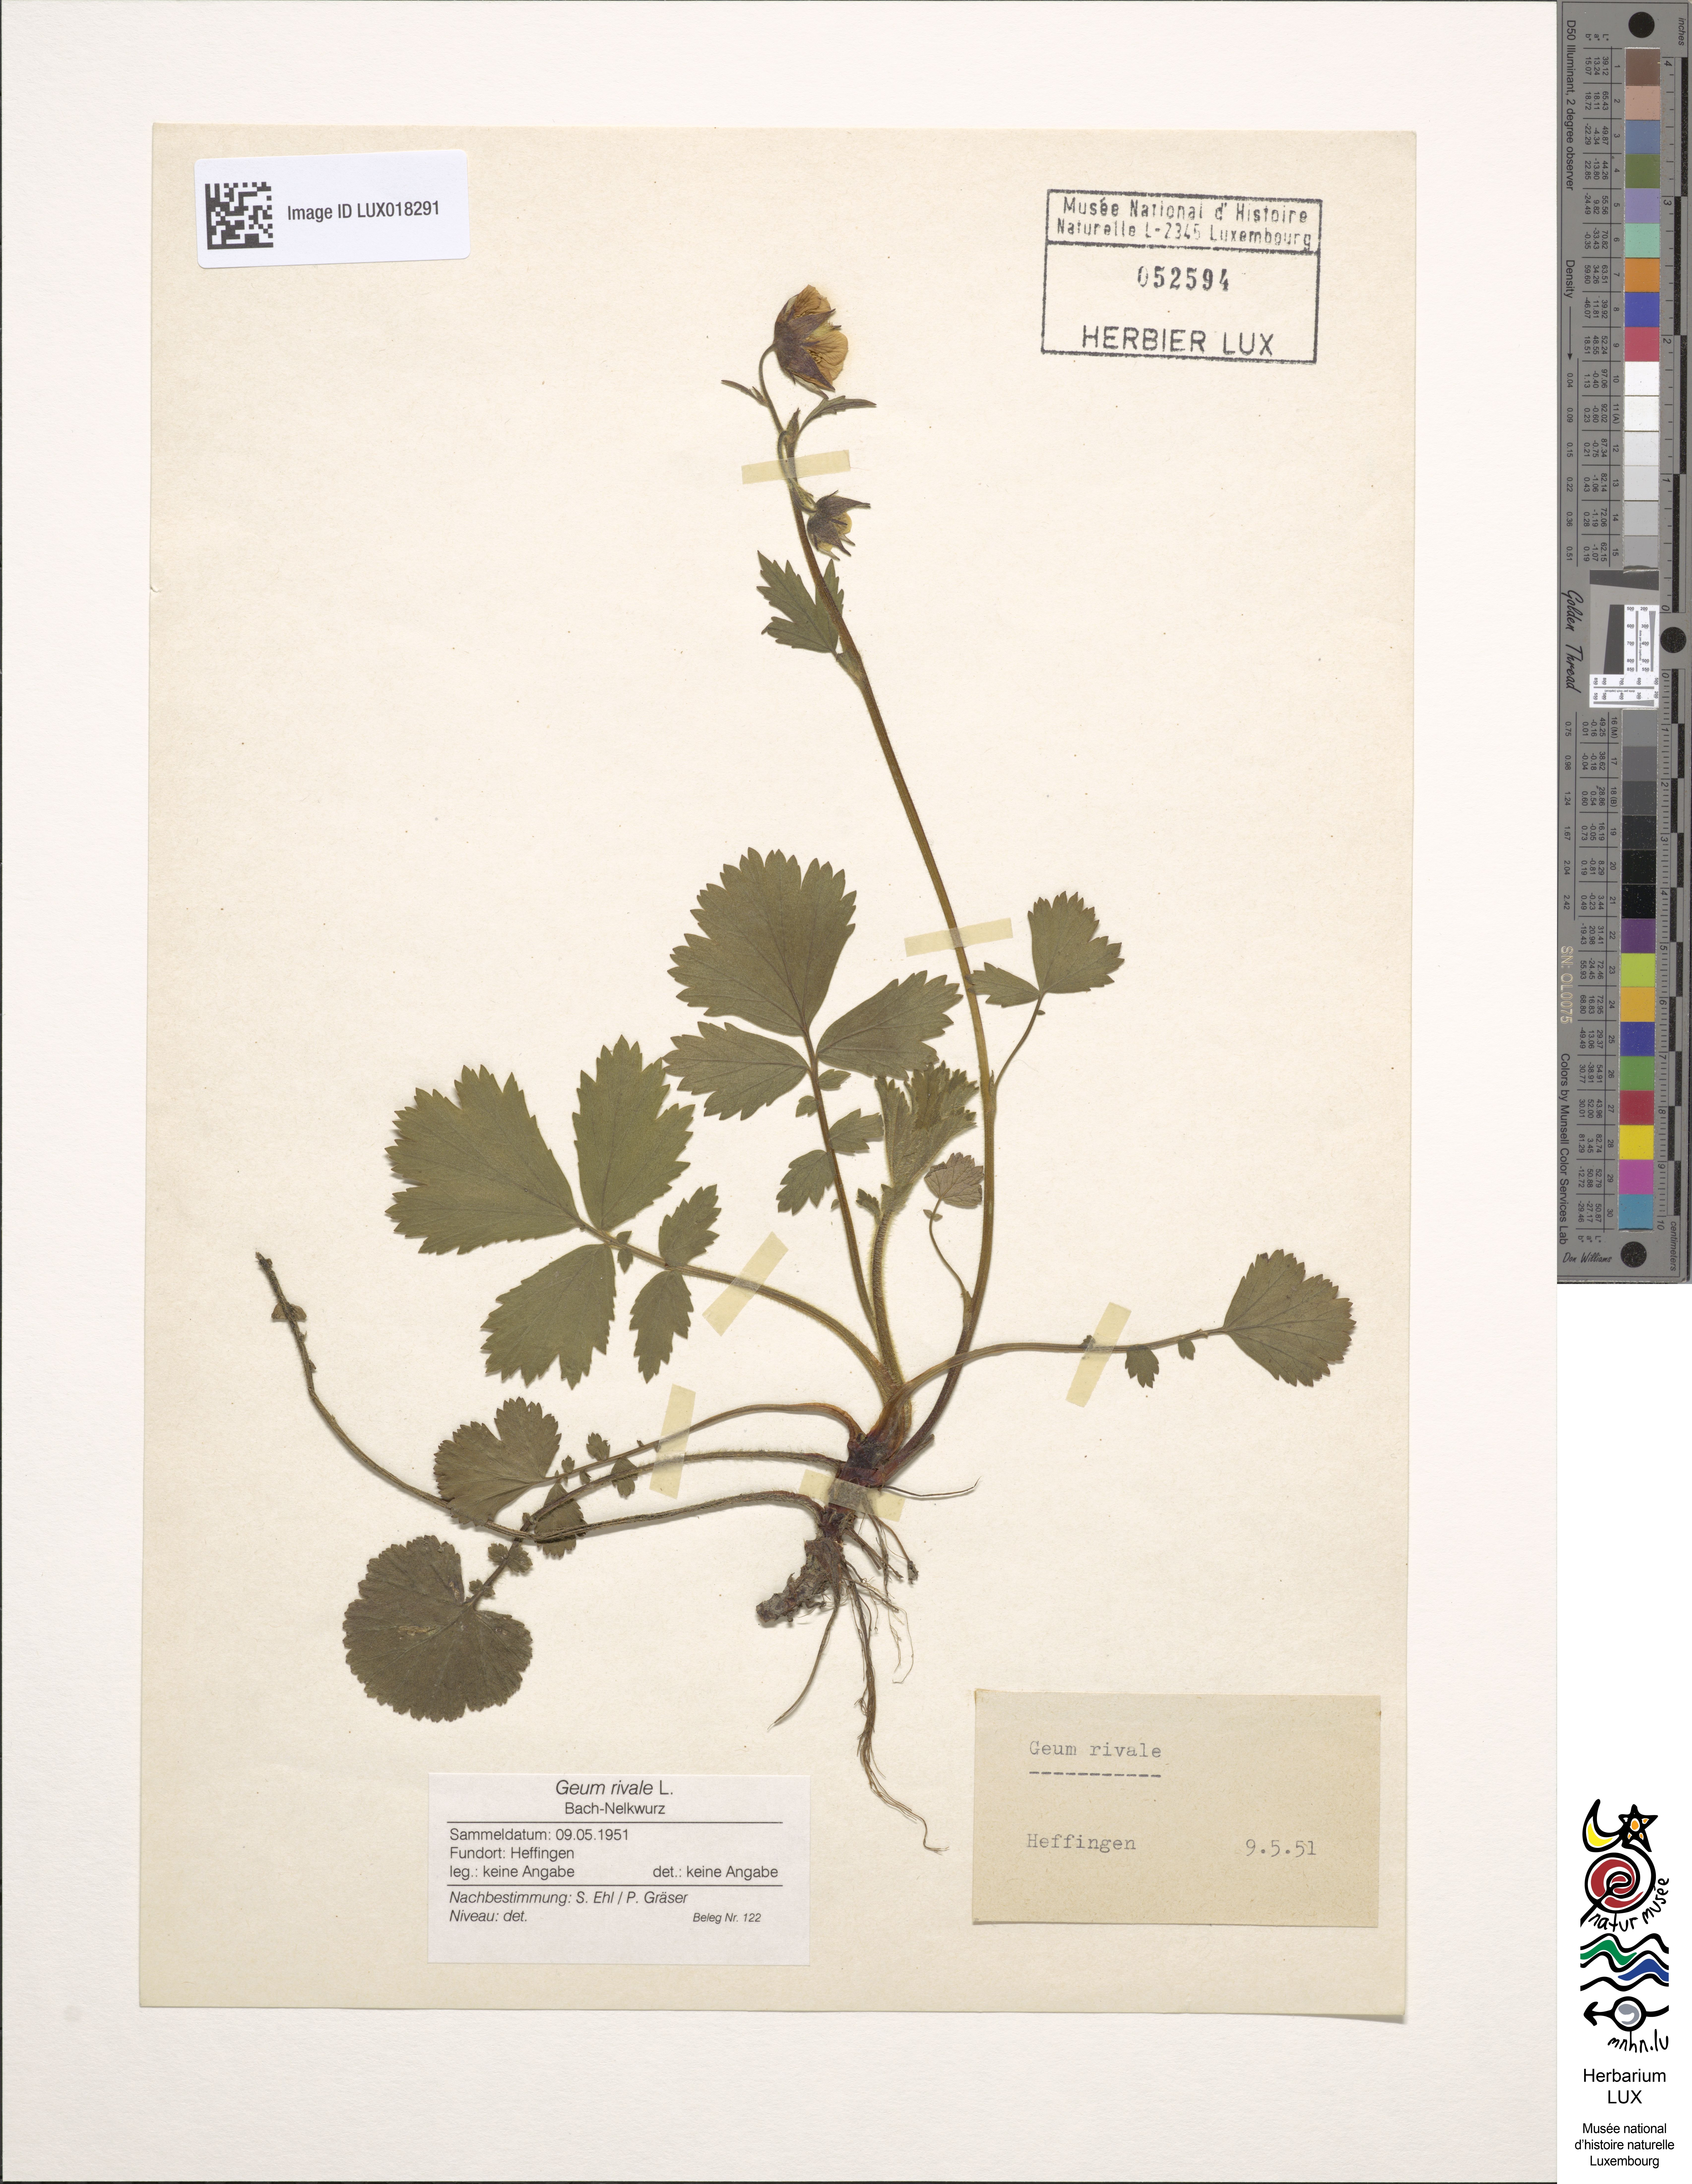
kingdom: Plantae
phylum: Tracheophyta
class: Magnoliopsida
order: Rosales
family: Rosaceae
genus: Geum
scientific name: Geum rivale
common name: Water avens
